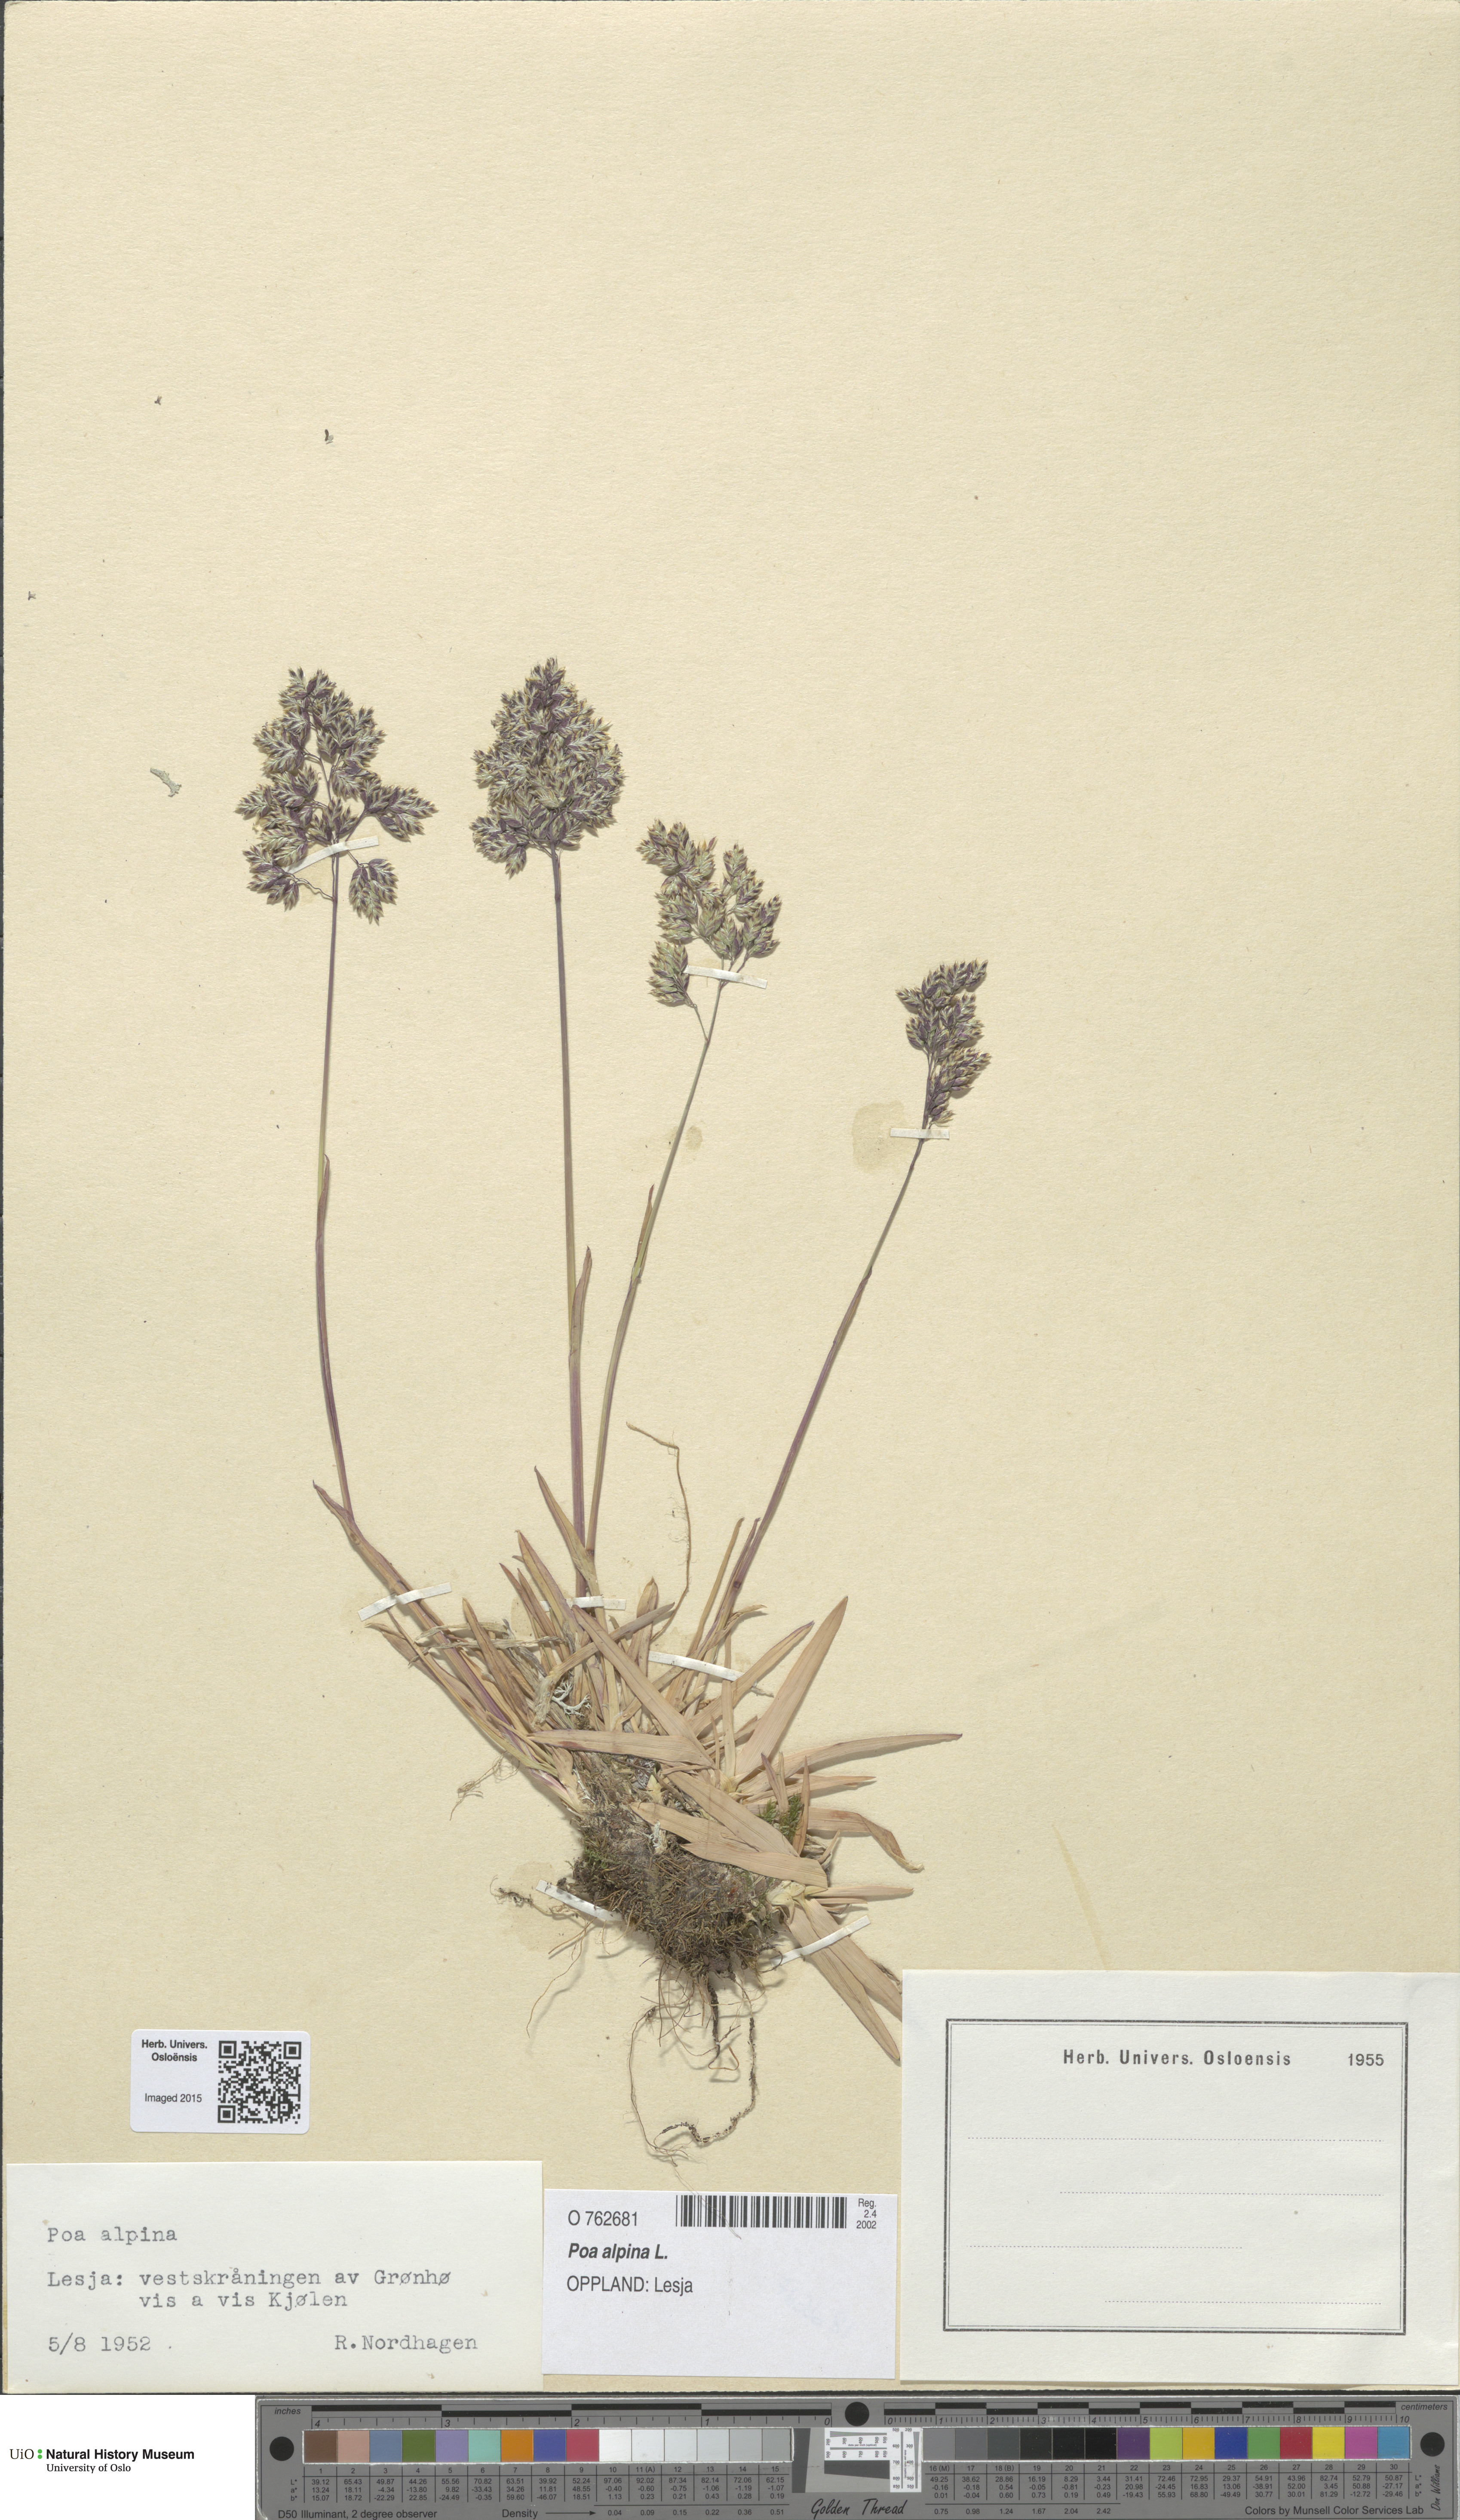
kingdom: Plantae
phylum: Tracheophyta
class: Liliopsida
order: Poales
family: Poaceae
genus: Poa
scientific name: Poa alpina
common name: Alpine bluegrass
